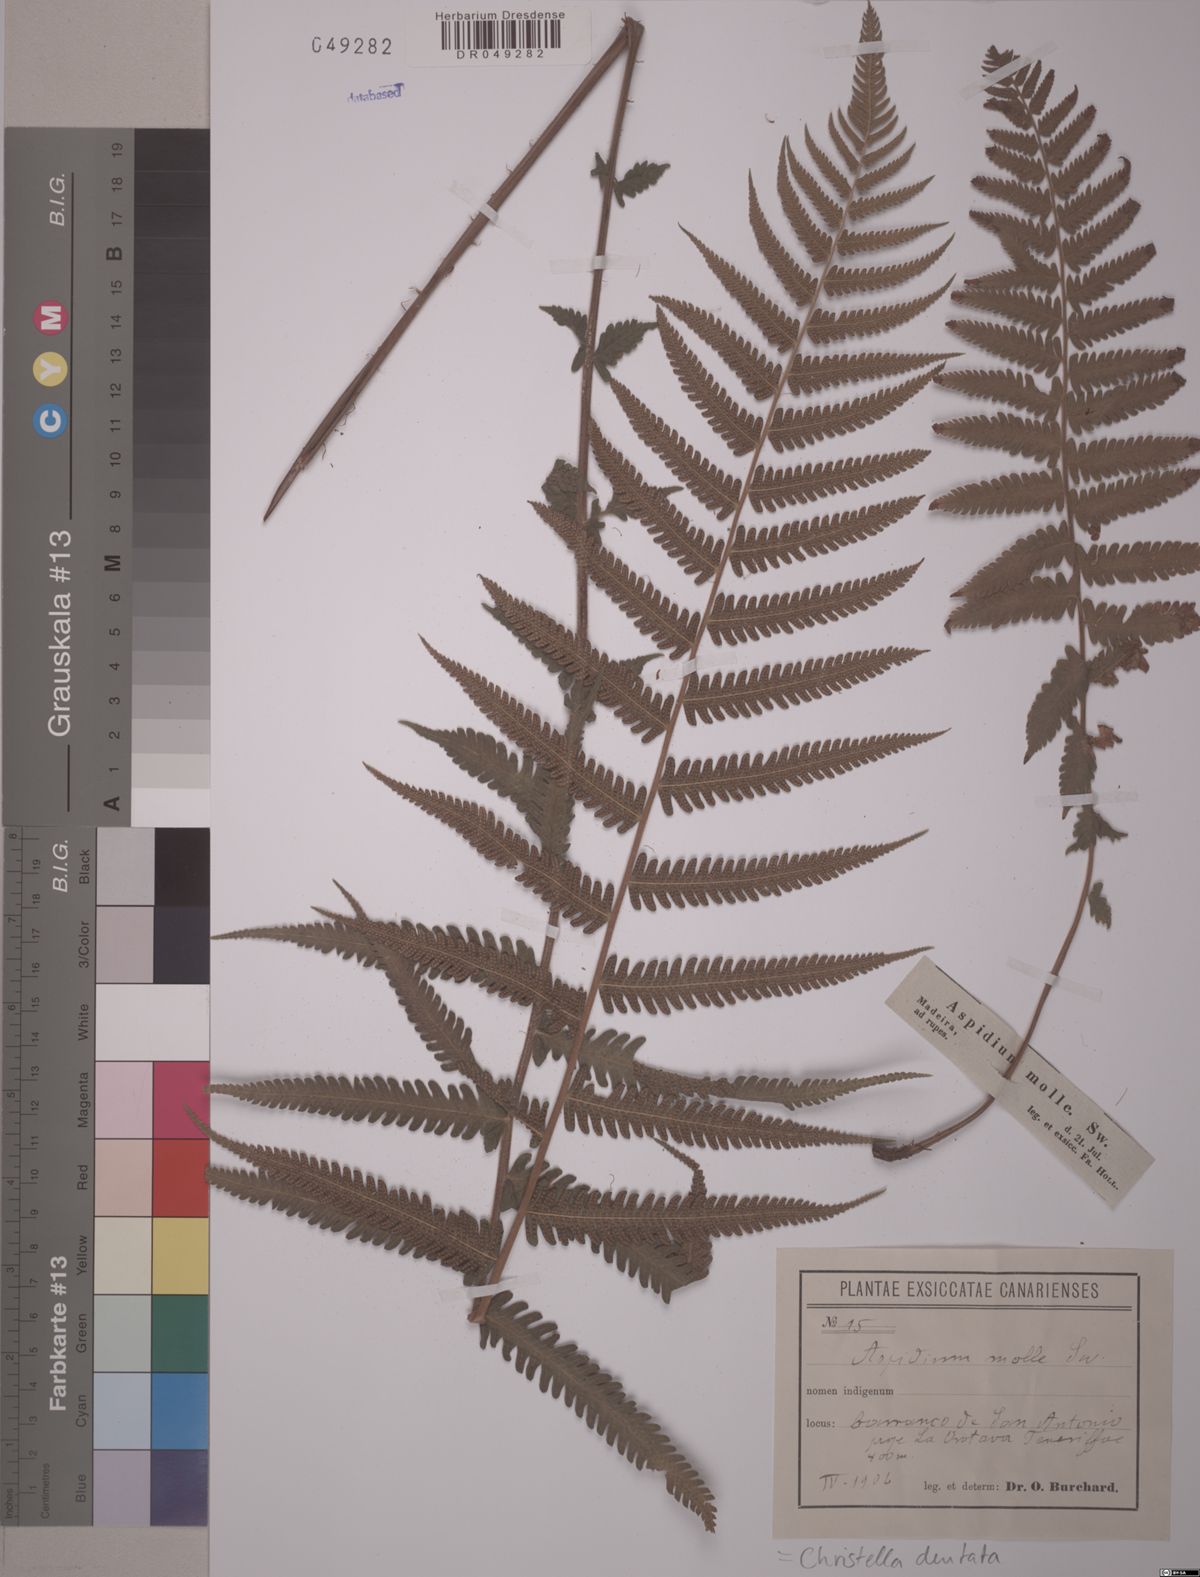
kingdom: Plantae
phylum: Tracheophyta
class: Polypodiopsida
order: Polypodiales
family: Thelypteridaceae
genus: Christella
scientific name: Christella dentata
